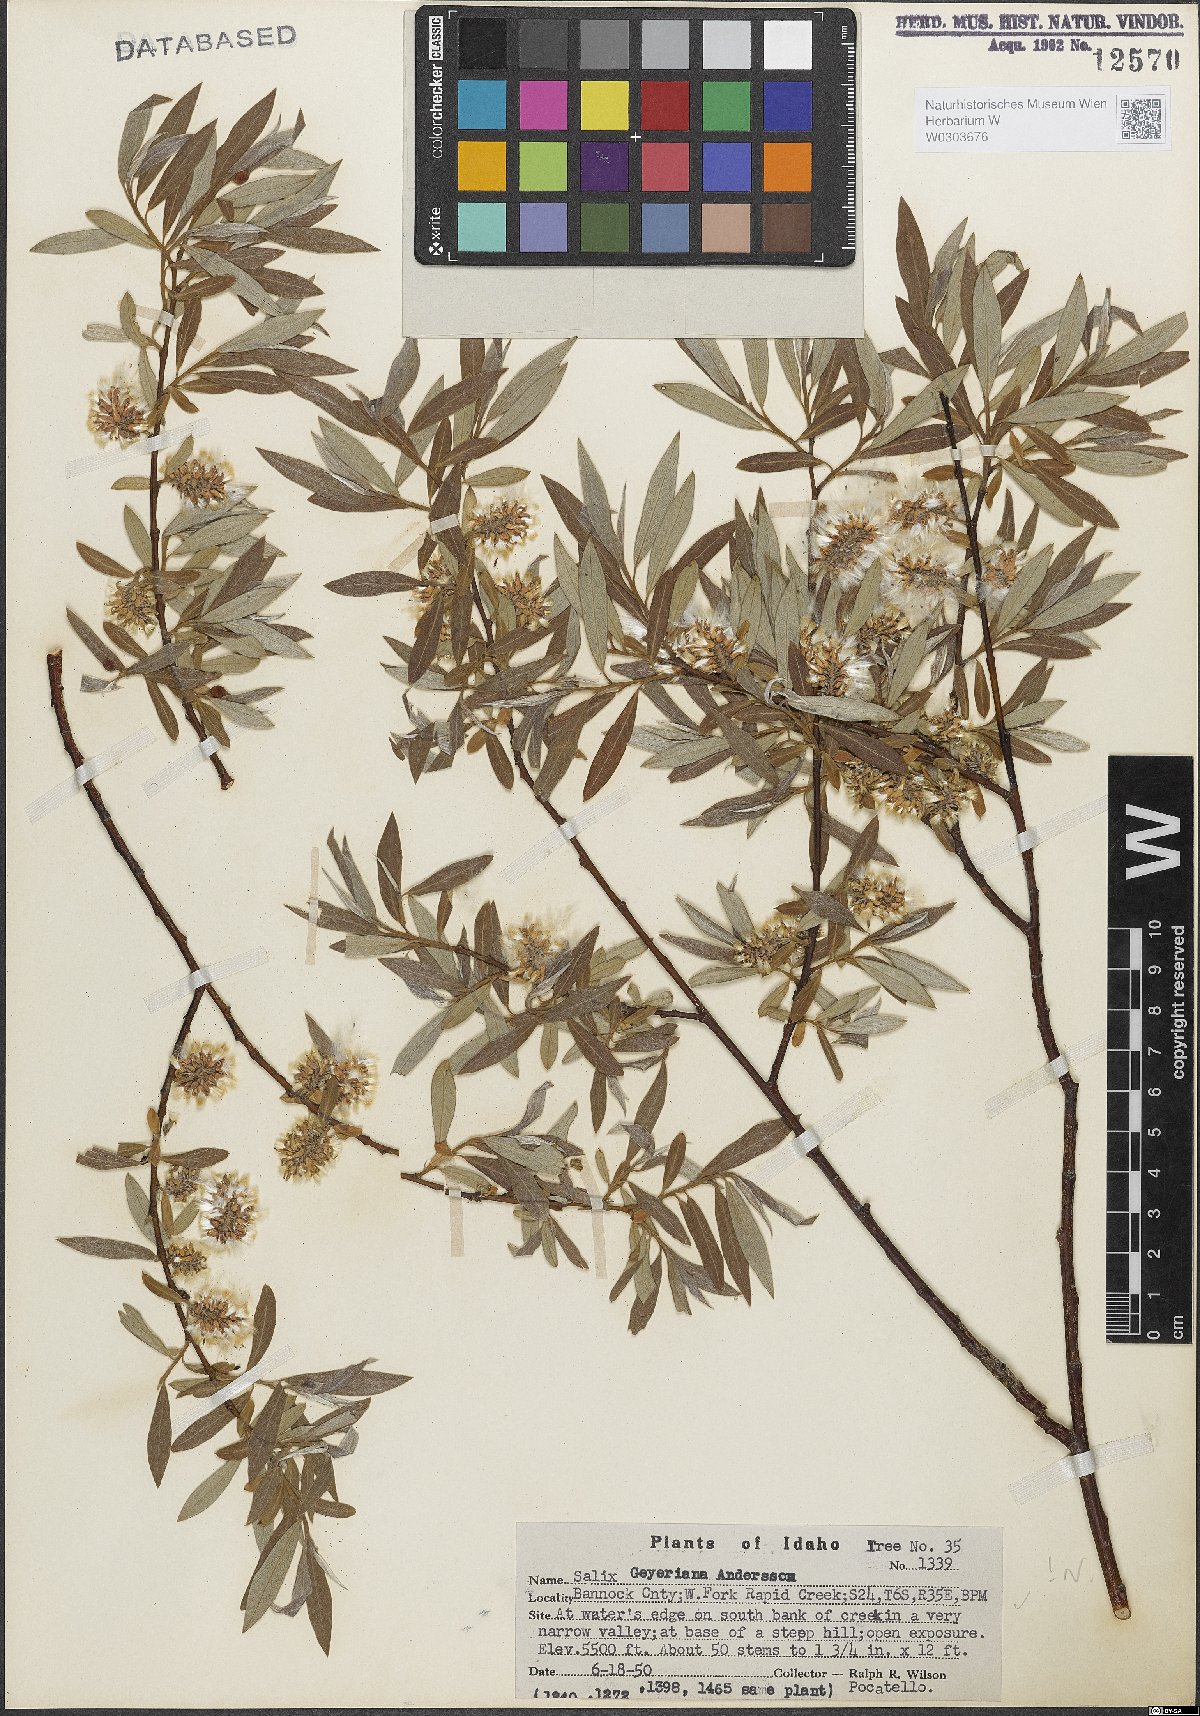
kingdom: Plantae
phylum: Tracheophyta
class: Magnoliopsida
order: Malpighiales
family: Salicaceae
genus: Salix
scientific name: Salix geyeriana
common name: Geyer's willow
